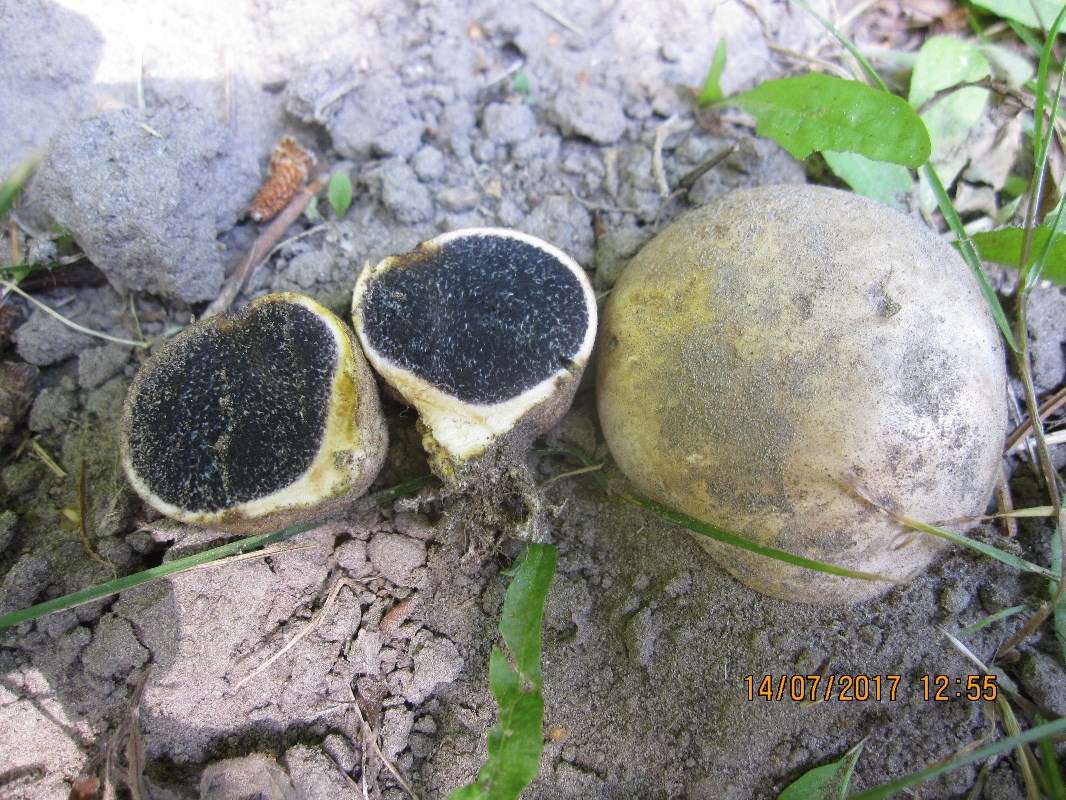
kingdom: Fungi
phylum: Basidiomycota
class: Agaricomycetes
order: Boletales
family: Sclerodermataceae
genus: Scleroderma
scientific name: Scleroderma bovista
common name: bovist-bruskbold
